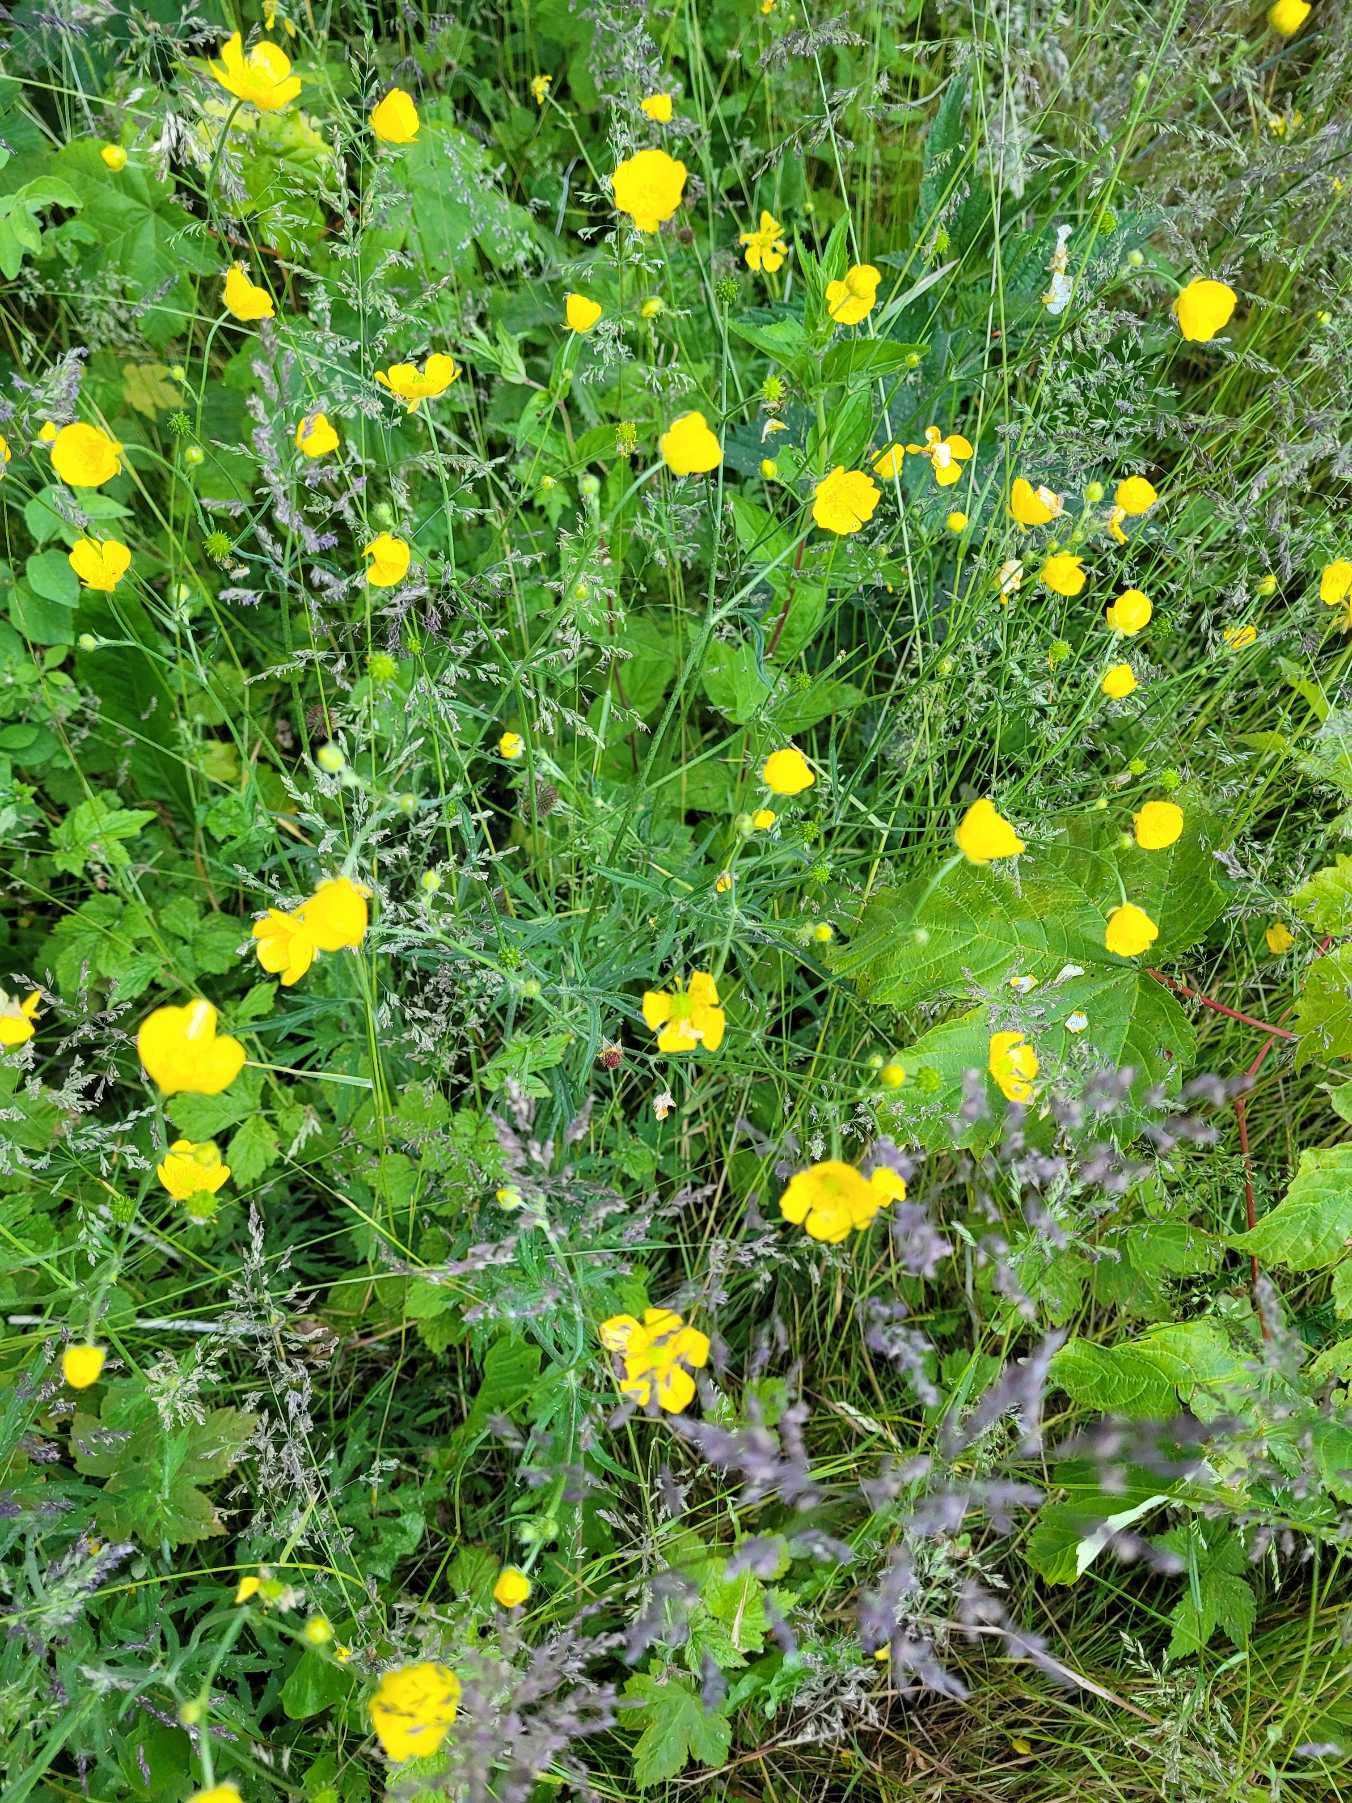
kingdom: Plantae
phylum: Tracheophyta
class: Magnoliopsida
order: Ranunculales
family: Ranunculaceae
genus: Ranunculus
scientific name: Ranunculus acris
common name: Bidende ranunkel
